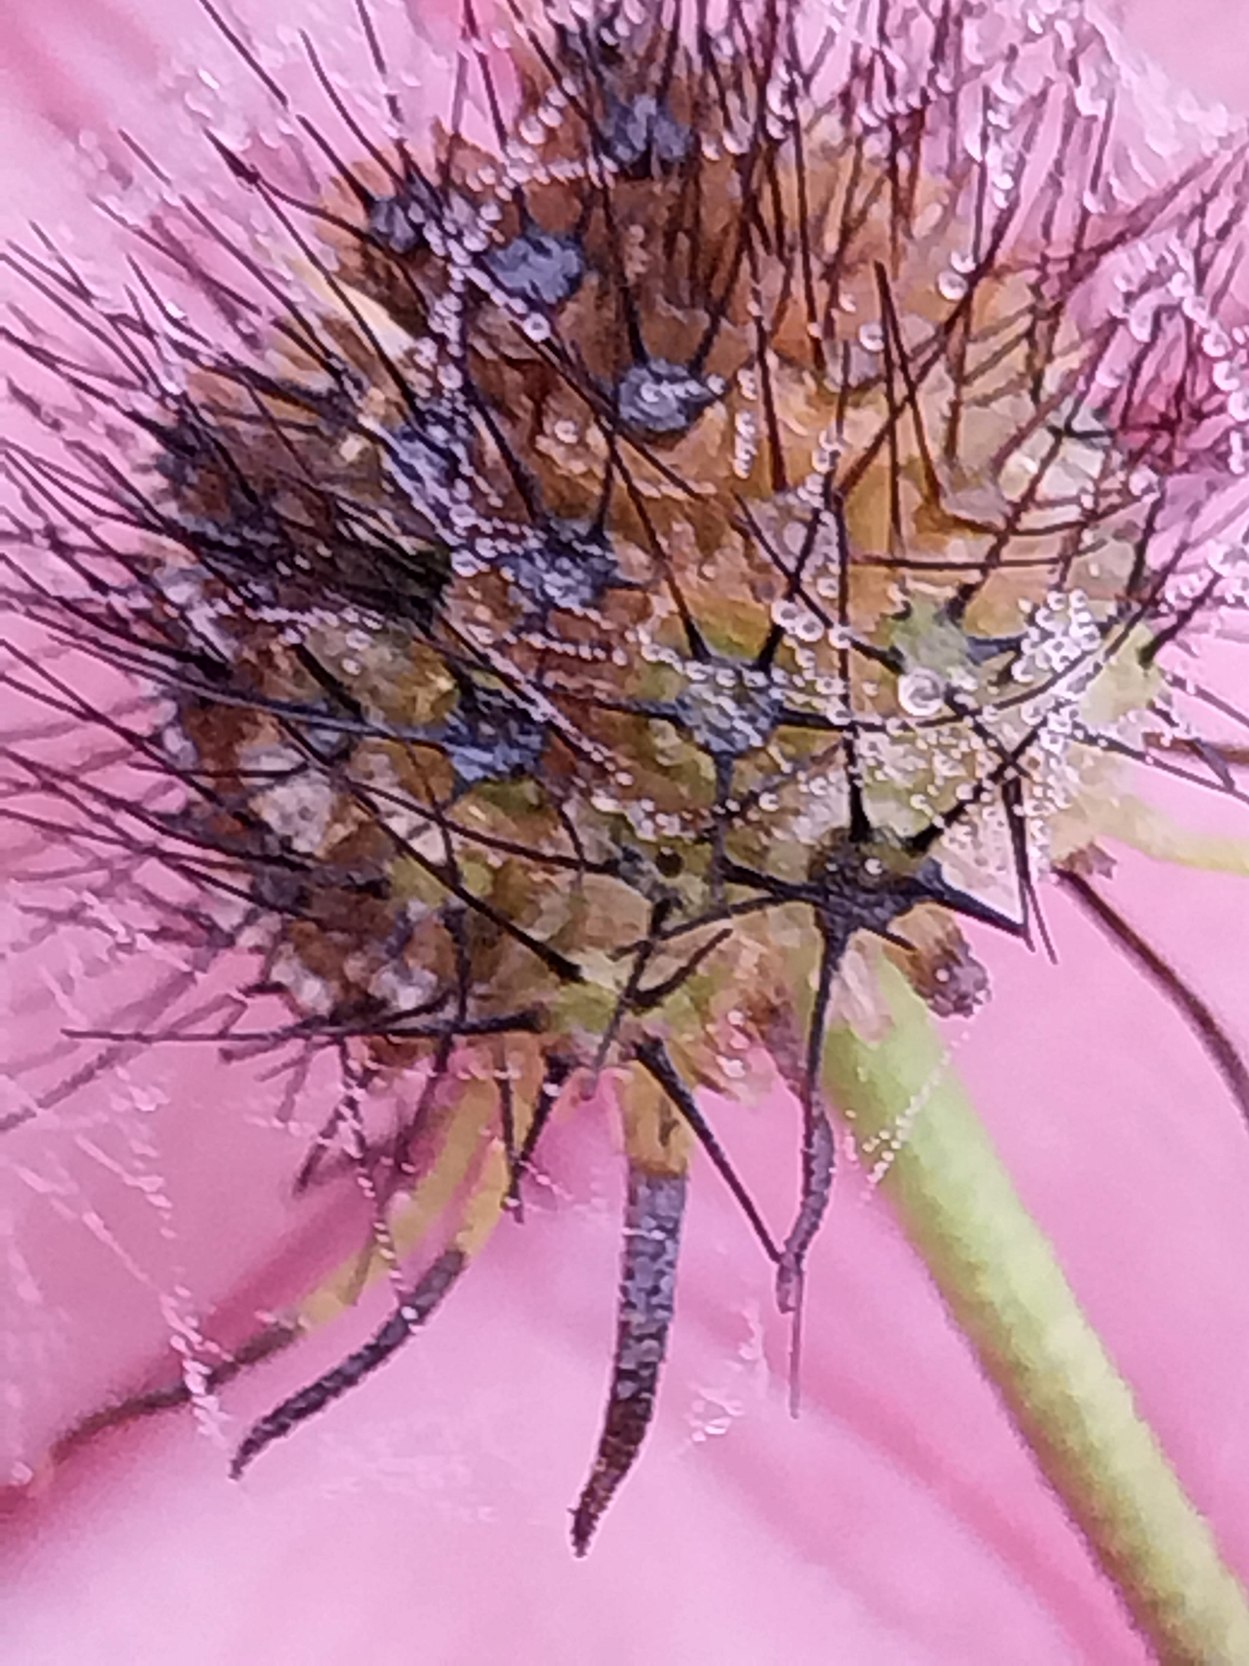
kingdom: Plantae
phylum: Tracheophyta
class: Magnoliopsida
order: Dipsacales
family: Caprifoliaceae
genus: Scabiosa
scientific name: Scabiosa columbaria
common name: Due-skabiose
